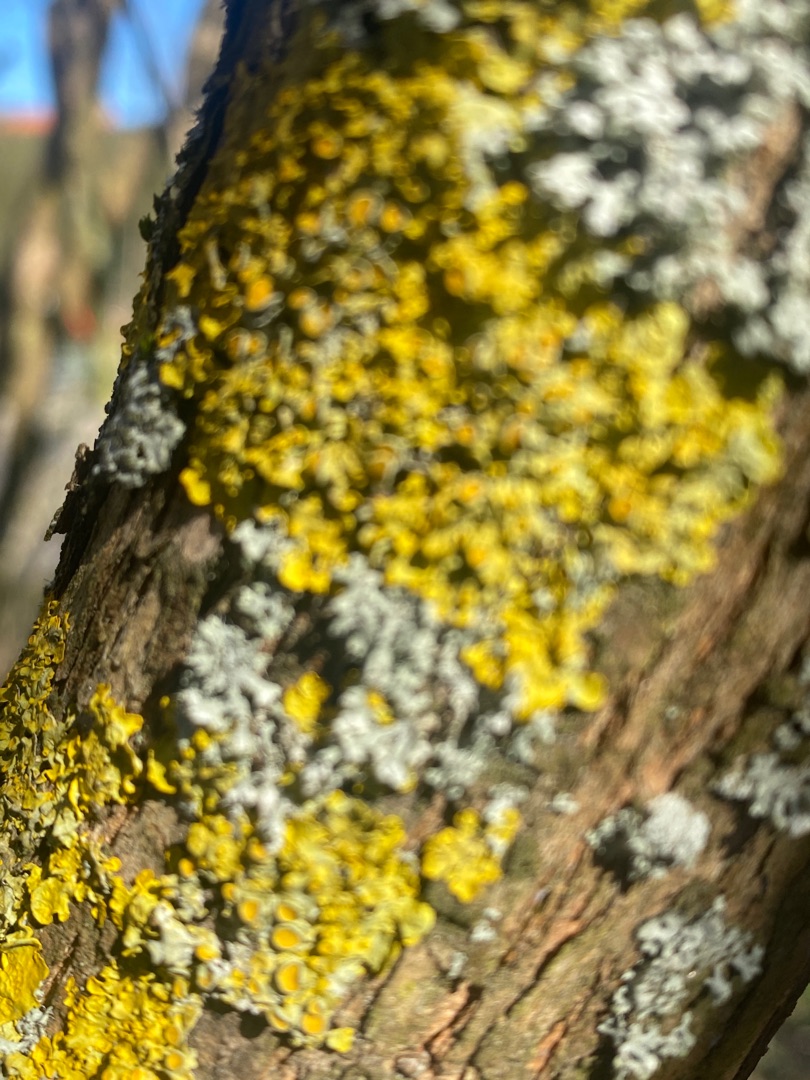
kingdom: Fungi
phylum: Ascomycota
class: Lecanoromycetes
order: Teloschistales
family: Teloschistaceae
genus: Xanthoria
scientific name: Xanthoria parietina
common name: Almindelig væggelav
